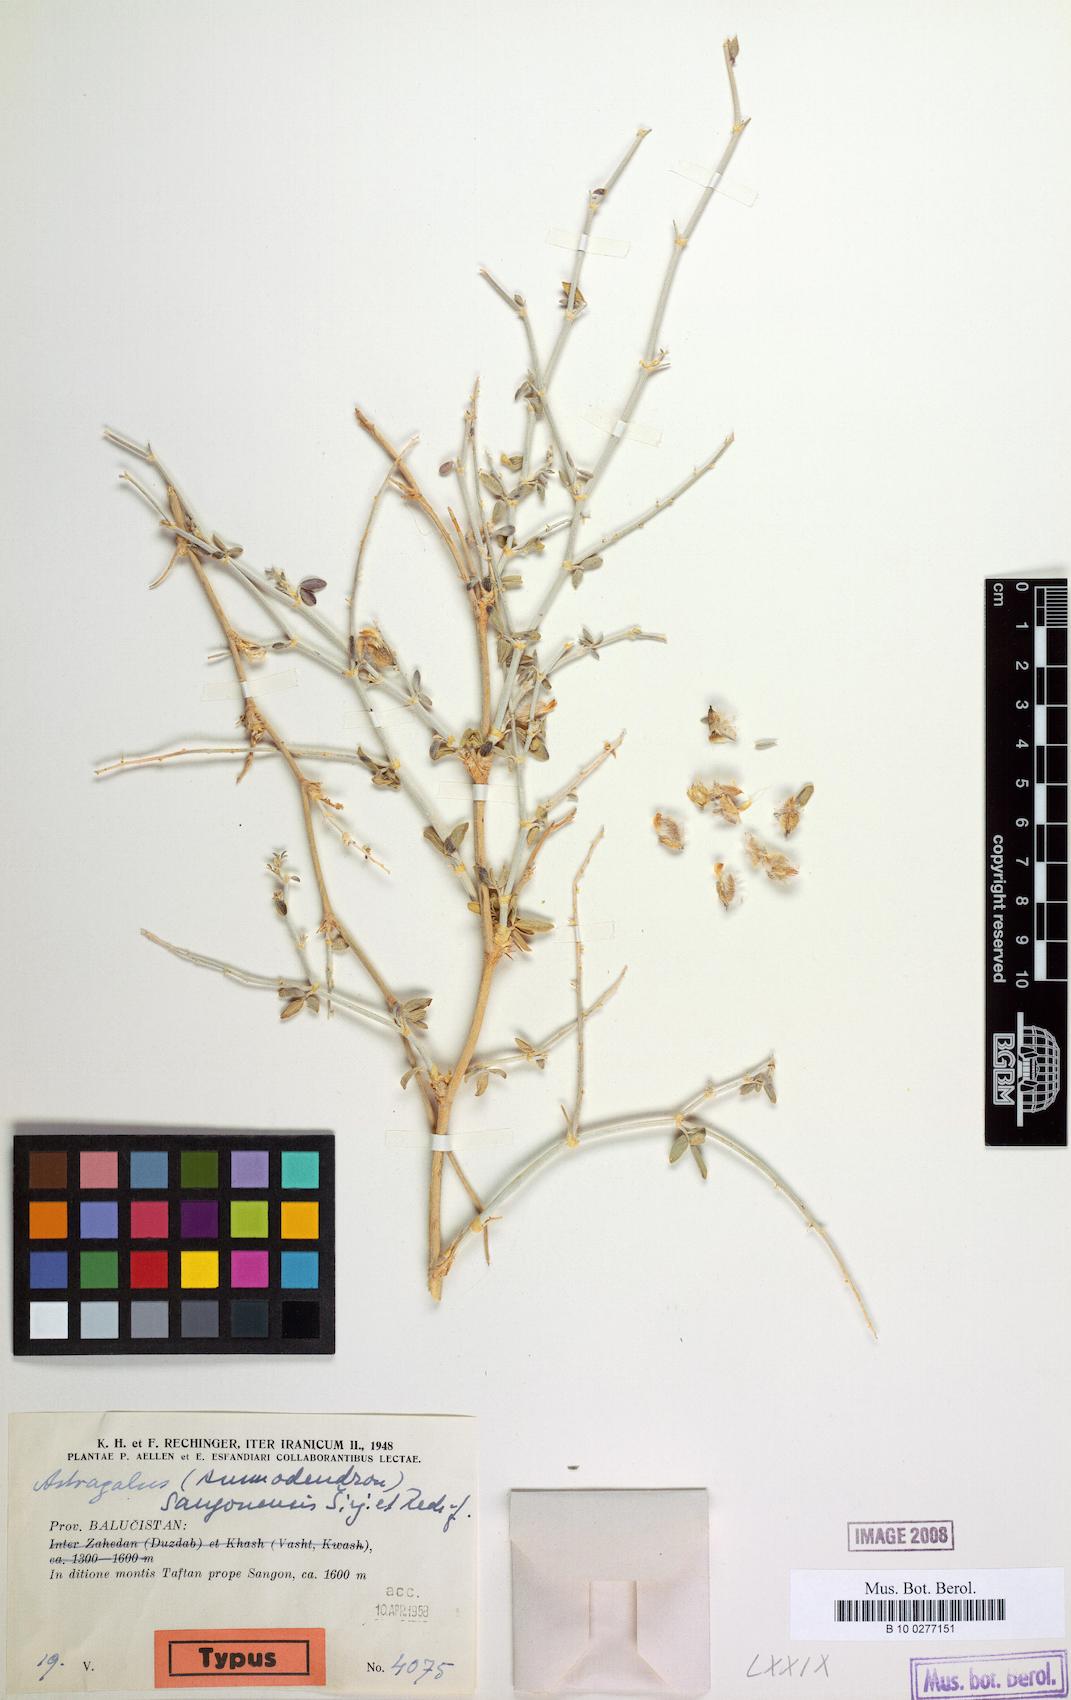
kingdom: Plantae
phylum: Tracheophyta
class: Magnoliopsida
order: Fabales
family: Fabaceae
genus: Astragalus
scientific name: Astragalus sangonensis
